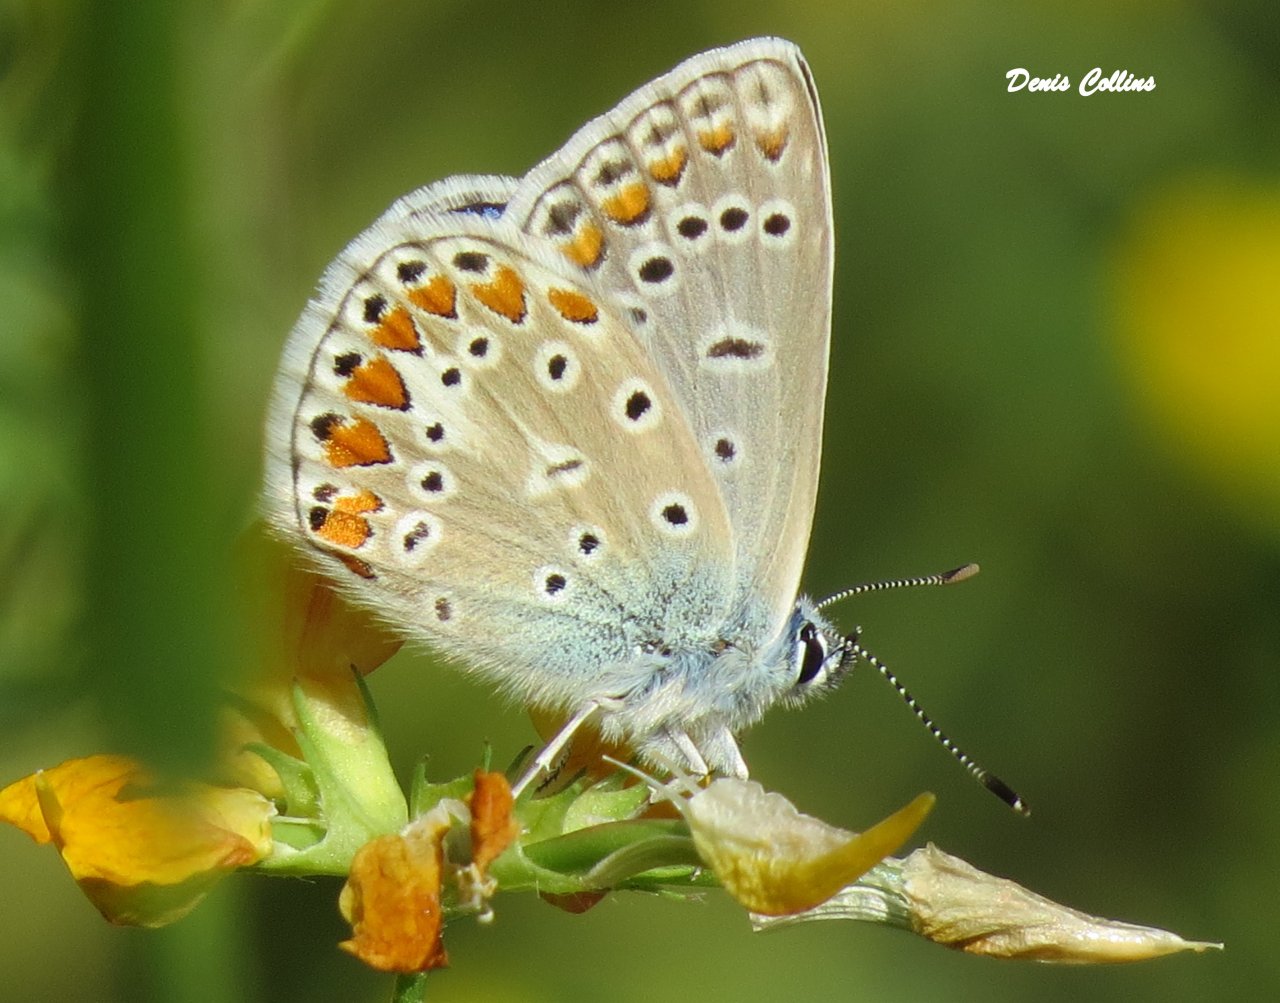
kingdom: Animalia
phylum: Arthropoda
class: Insecta
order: Lepidoptera
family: Lycaenidae
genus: Polyommatus
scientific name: Polyommatus icarus
